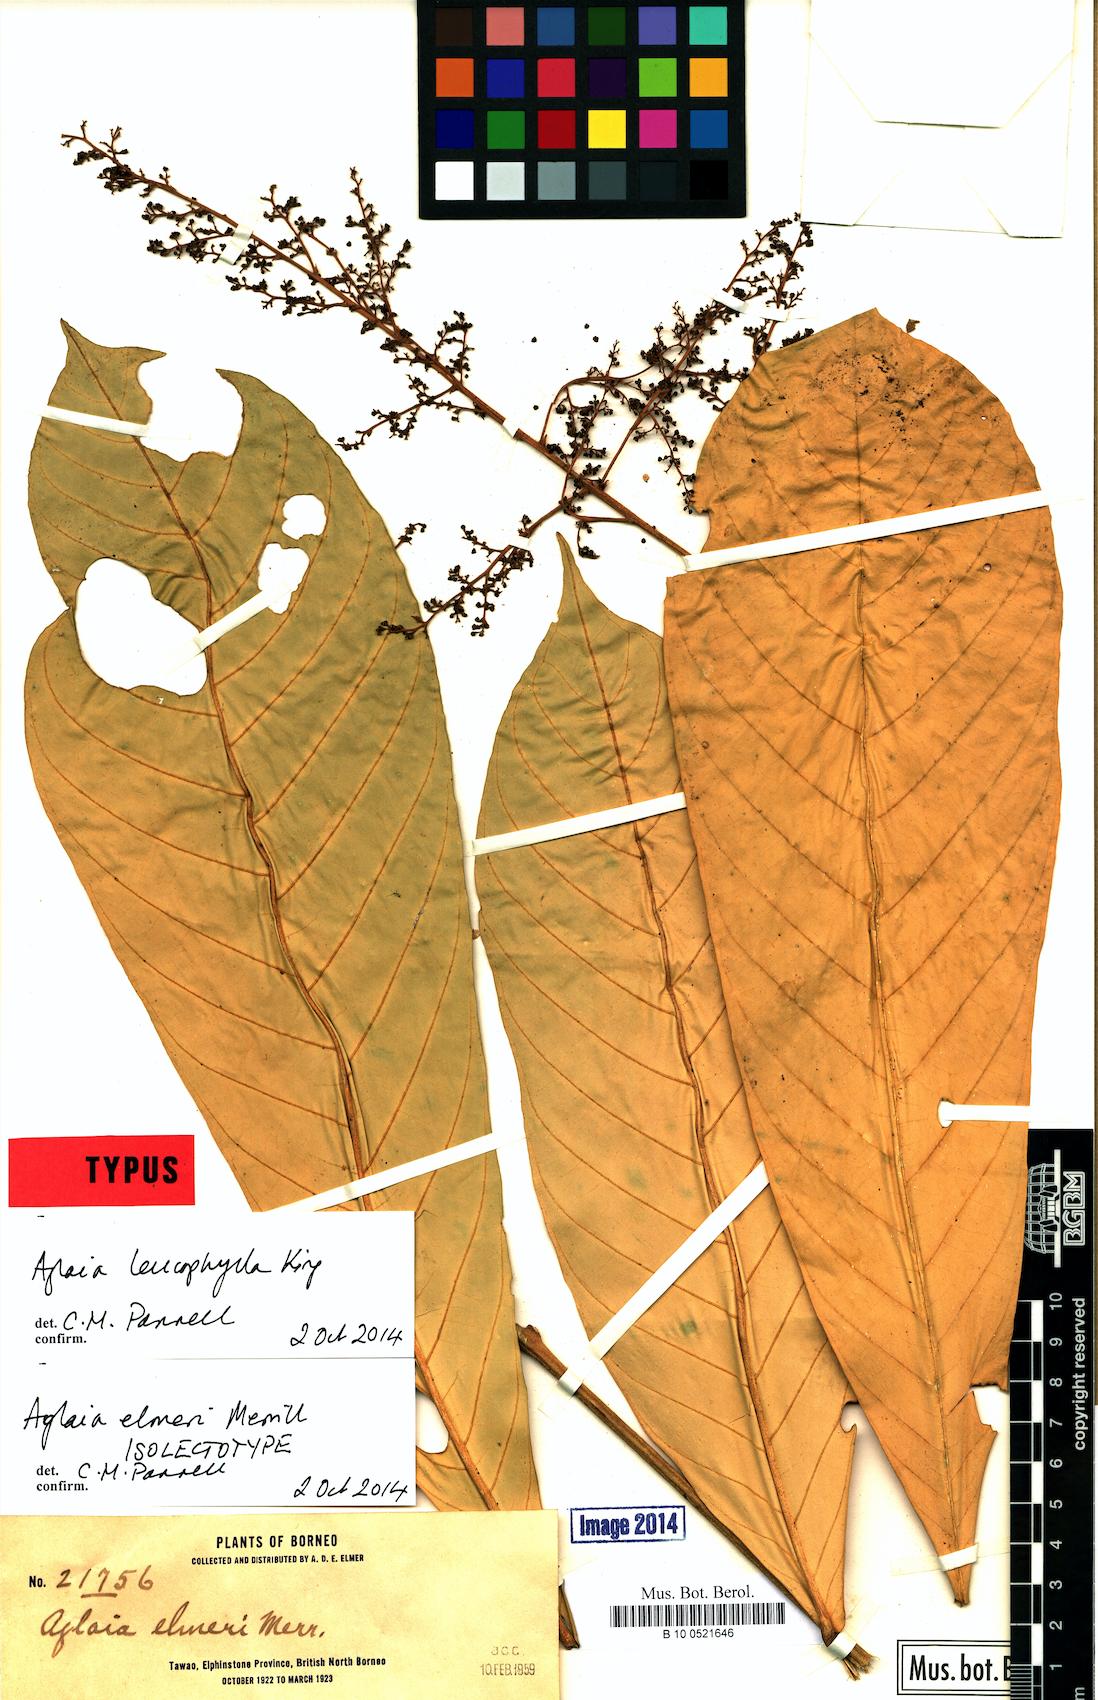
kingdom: Plantae
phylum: Tracheophyta
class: Magnoliopsida
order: Sapindales
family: Meliaceae
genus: Aglaia
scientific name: Aglaia leucophylla
